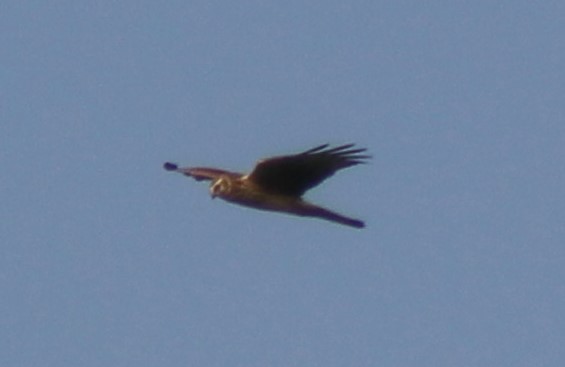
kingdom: Animalia
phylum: Chordata
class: Aves
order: Accipitriformes
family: Accipitridae
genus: Circus
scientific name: Circus cyaneus
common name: Blå kærhøg
